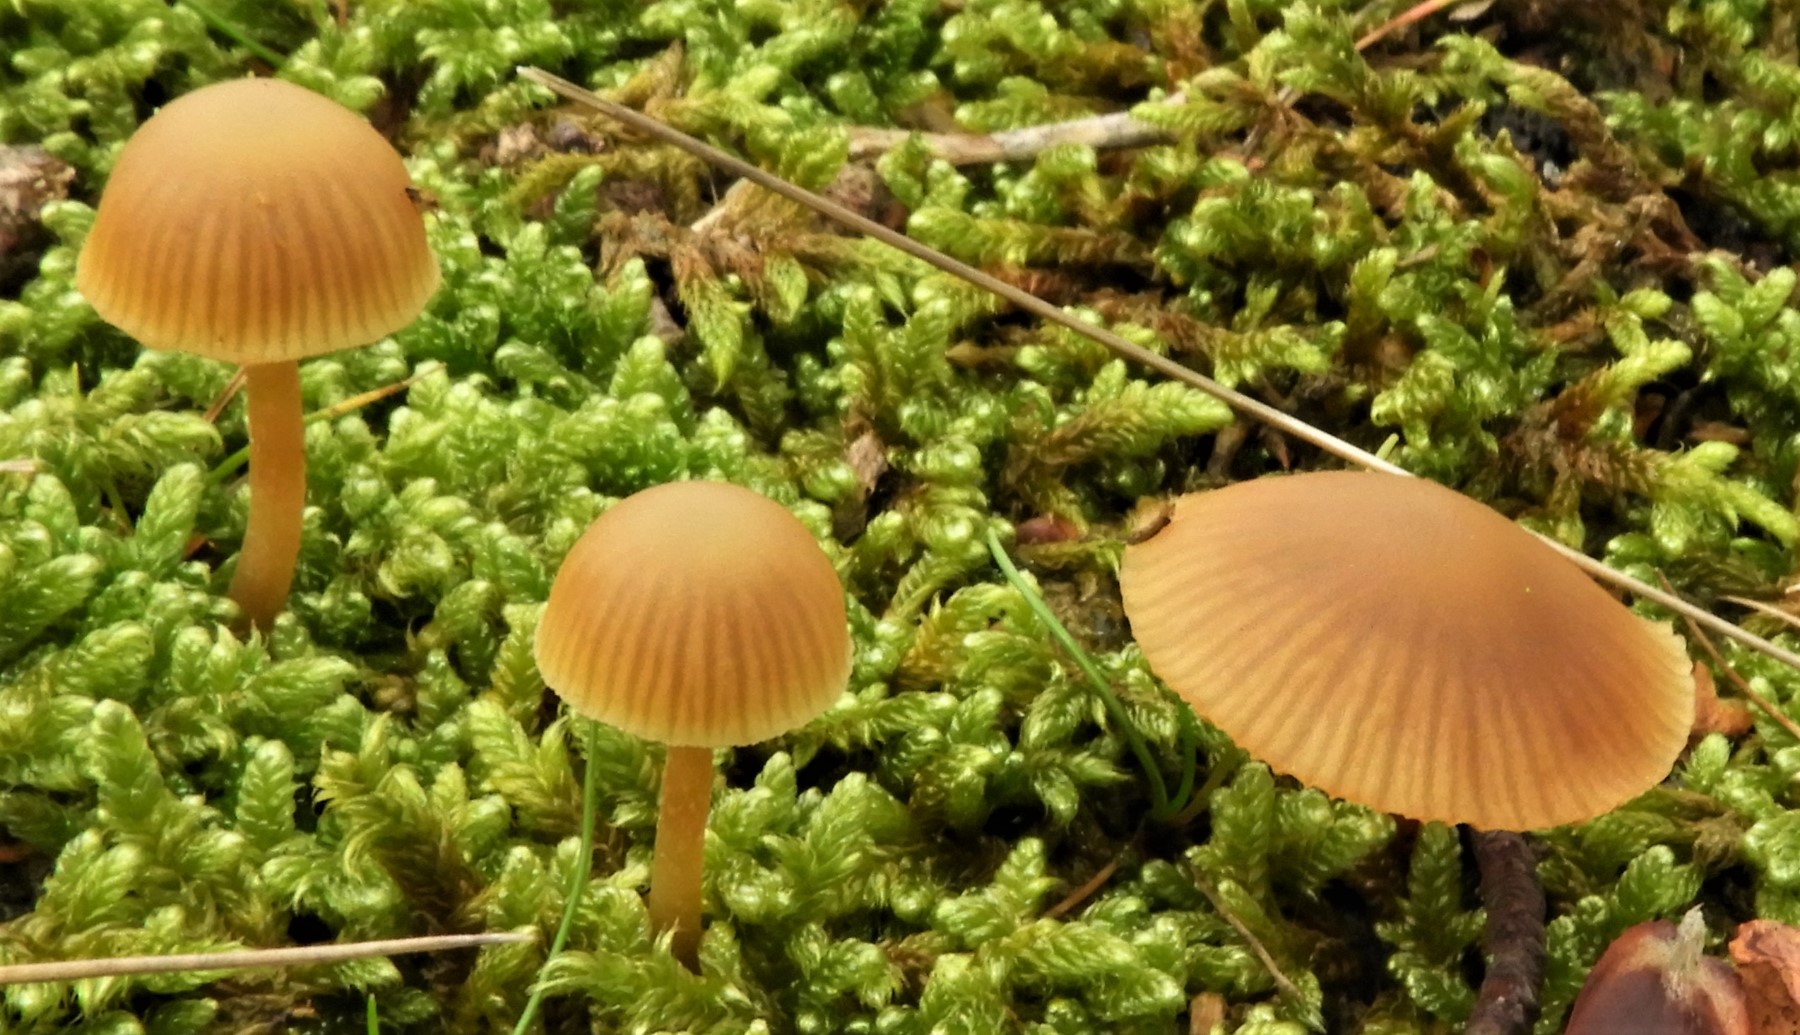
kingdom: Fungi
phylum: Basidiomycota
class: Agaricomycetes
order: Agaricales
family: Hymenogastraceae
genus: Galerina
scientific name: Galerina
